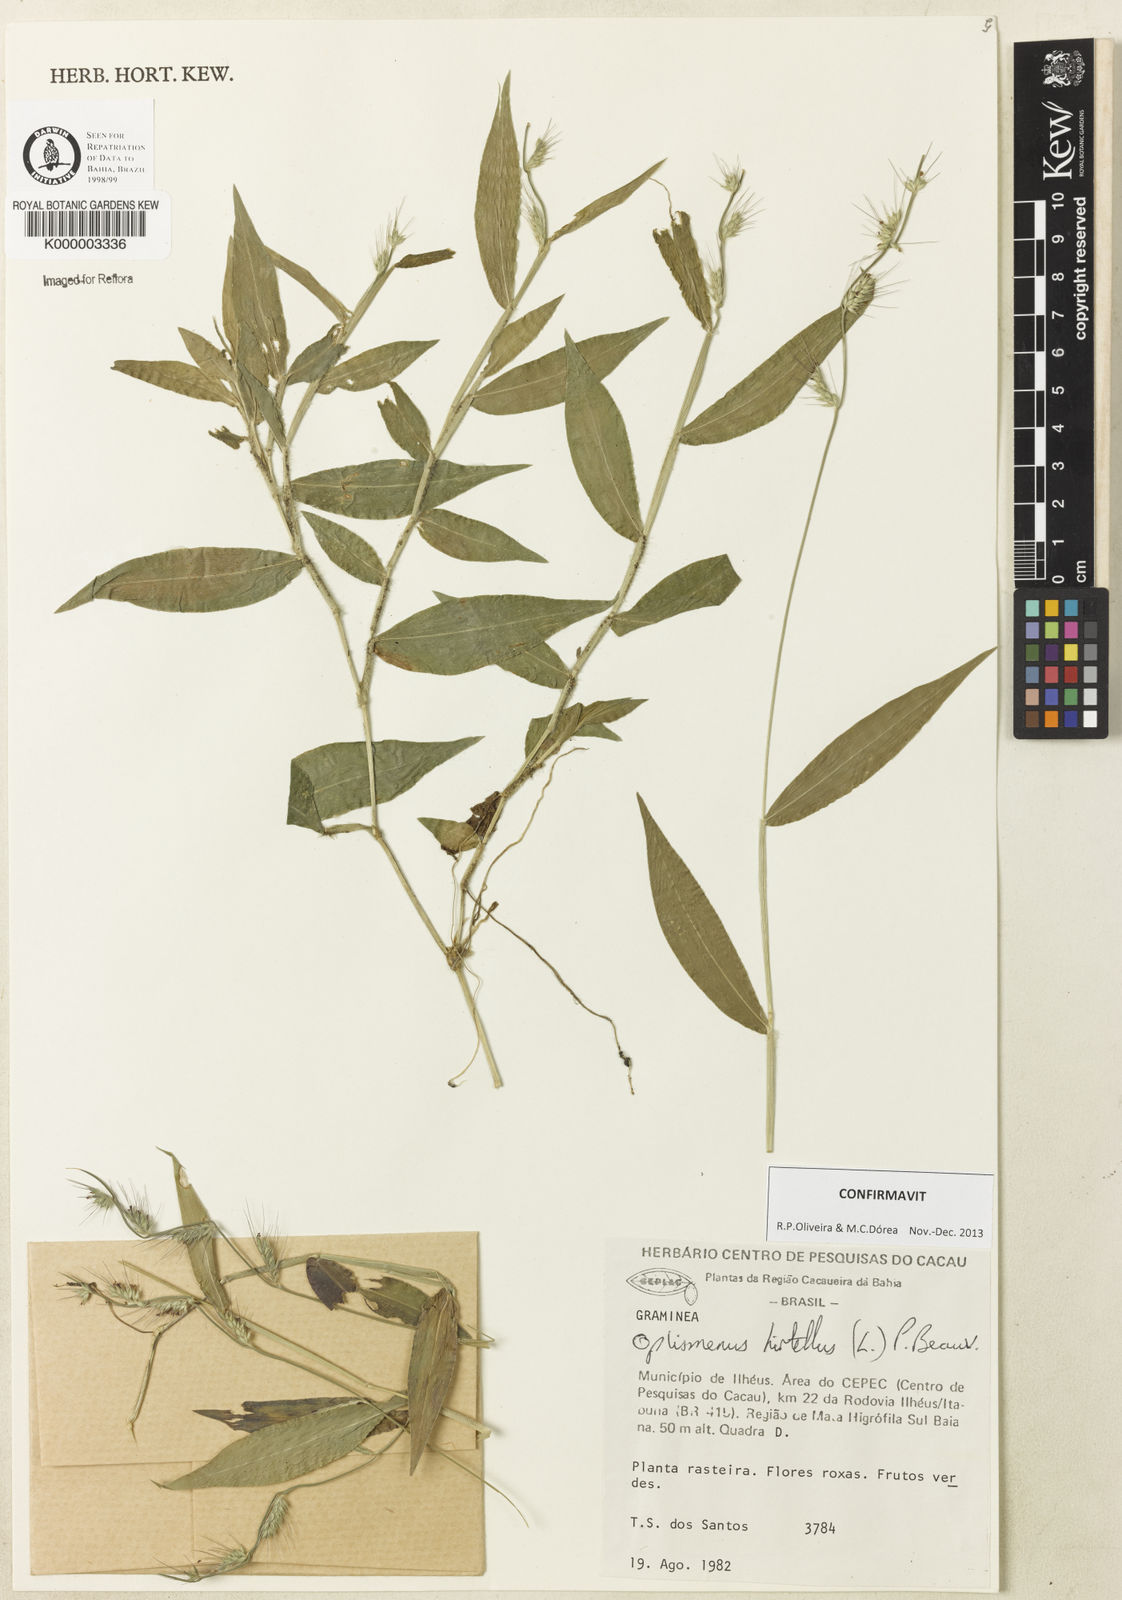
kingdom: Plantae
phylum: Tracheophyta
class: Liliopsida
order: Poales
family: Poaceae
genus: Oplismenus
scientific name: Oplismenus hirtellus
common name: Basketgrass
